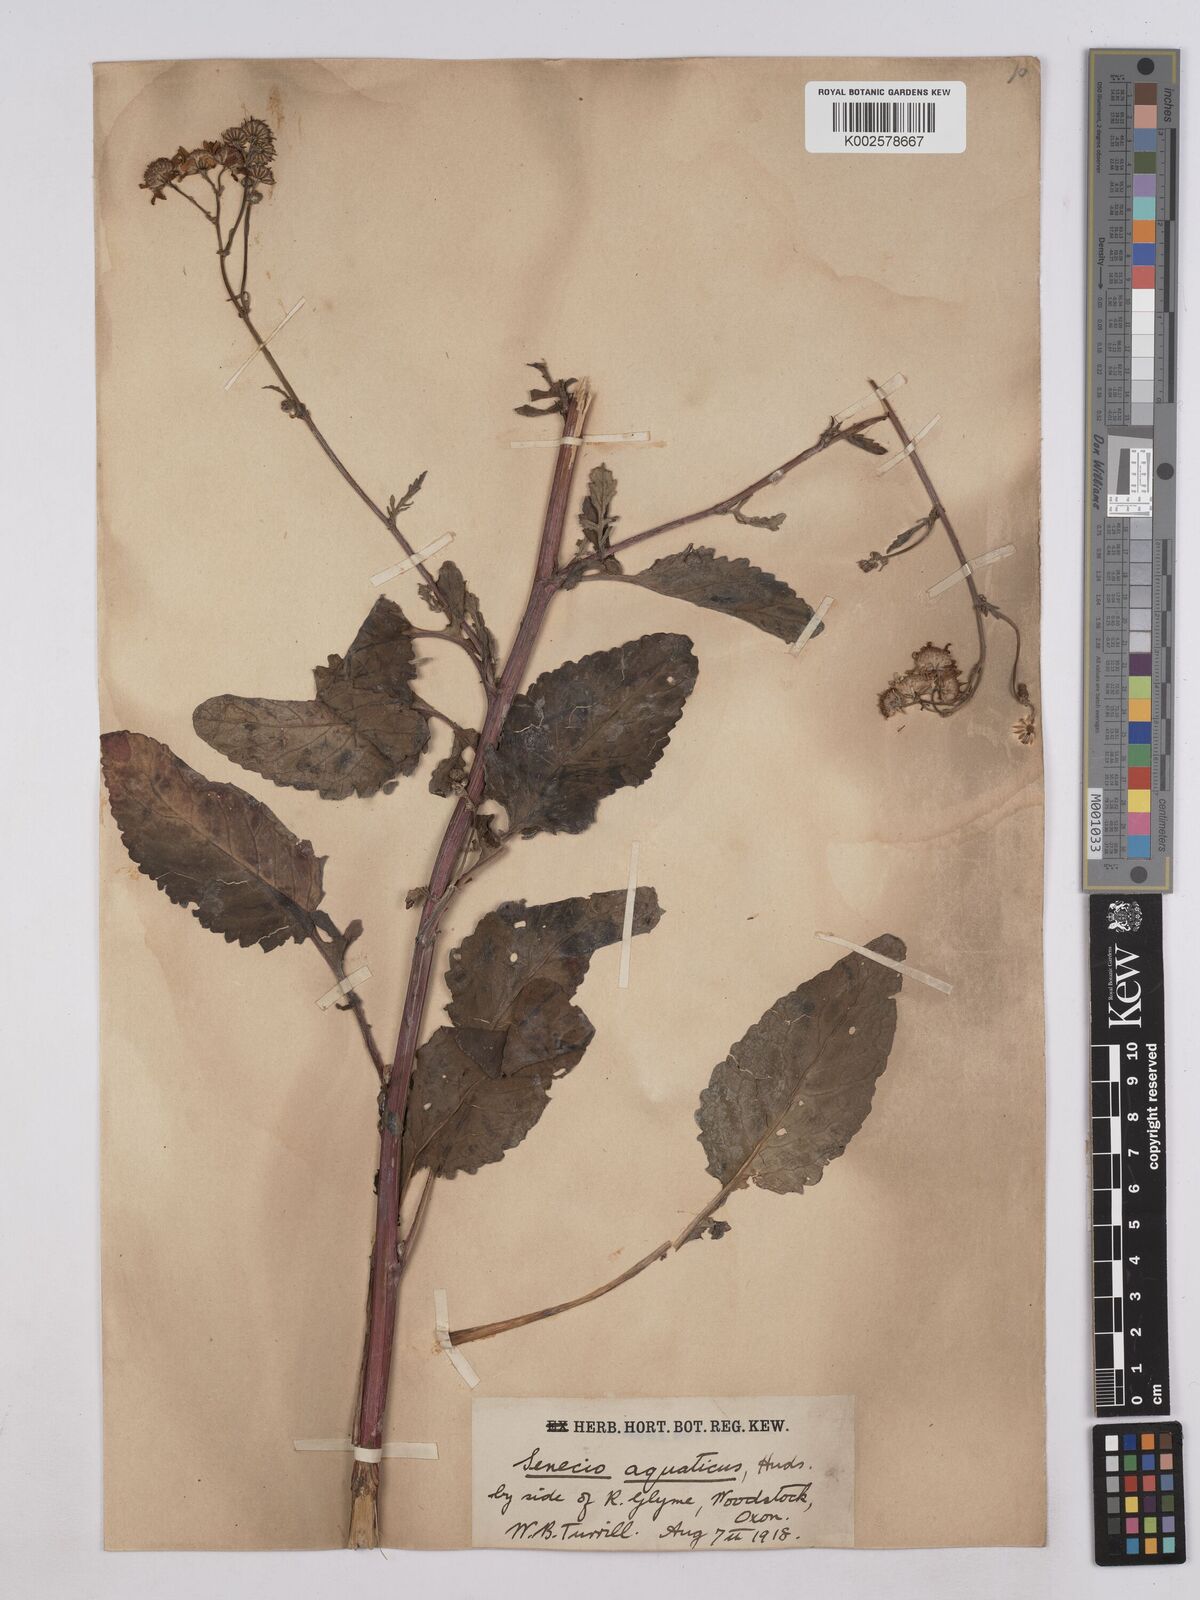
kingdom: Plantae
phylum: Tracheophyta
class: Magnoliopsida
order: Asterales
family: Asteraceae
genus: Jacobaea
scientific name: Jacobaea aquatica
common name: Water ragwort
